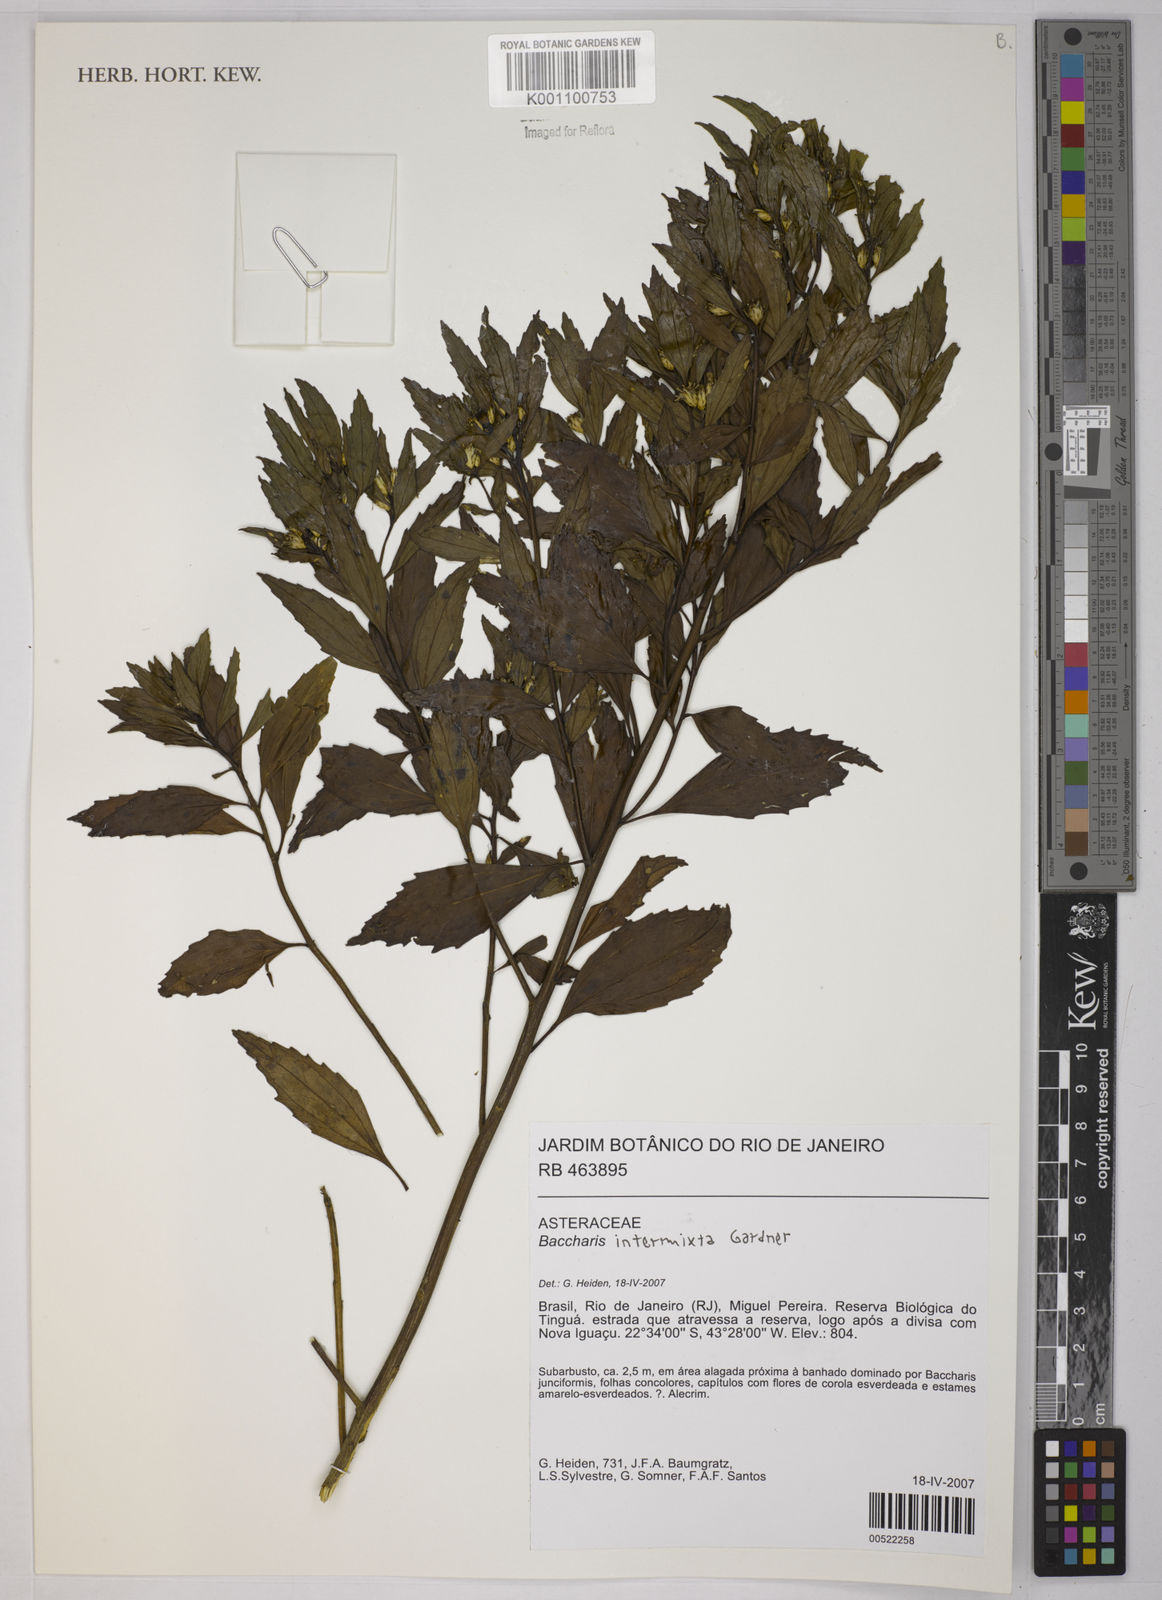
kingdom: Plantae
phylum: Tracheophyta
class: Magnoliopsida
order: Asterales
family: Asteraceae
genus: Baccharis
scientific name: Baccharis intermixta
